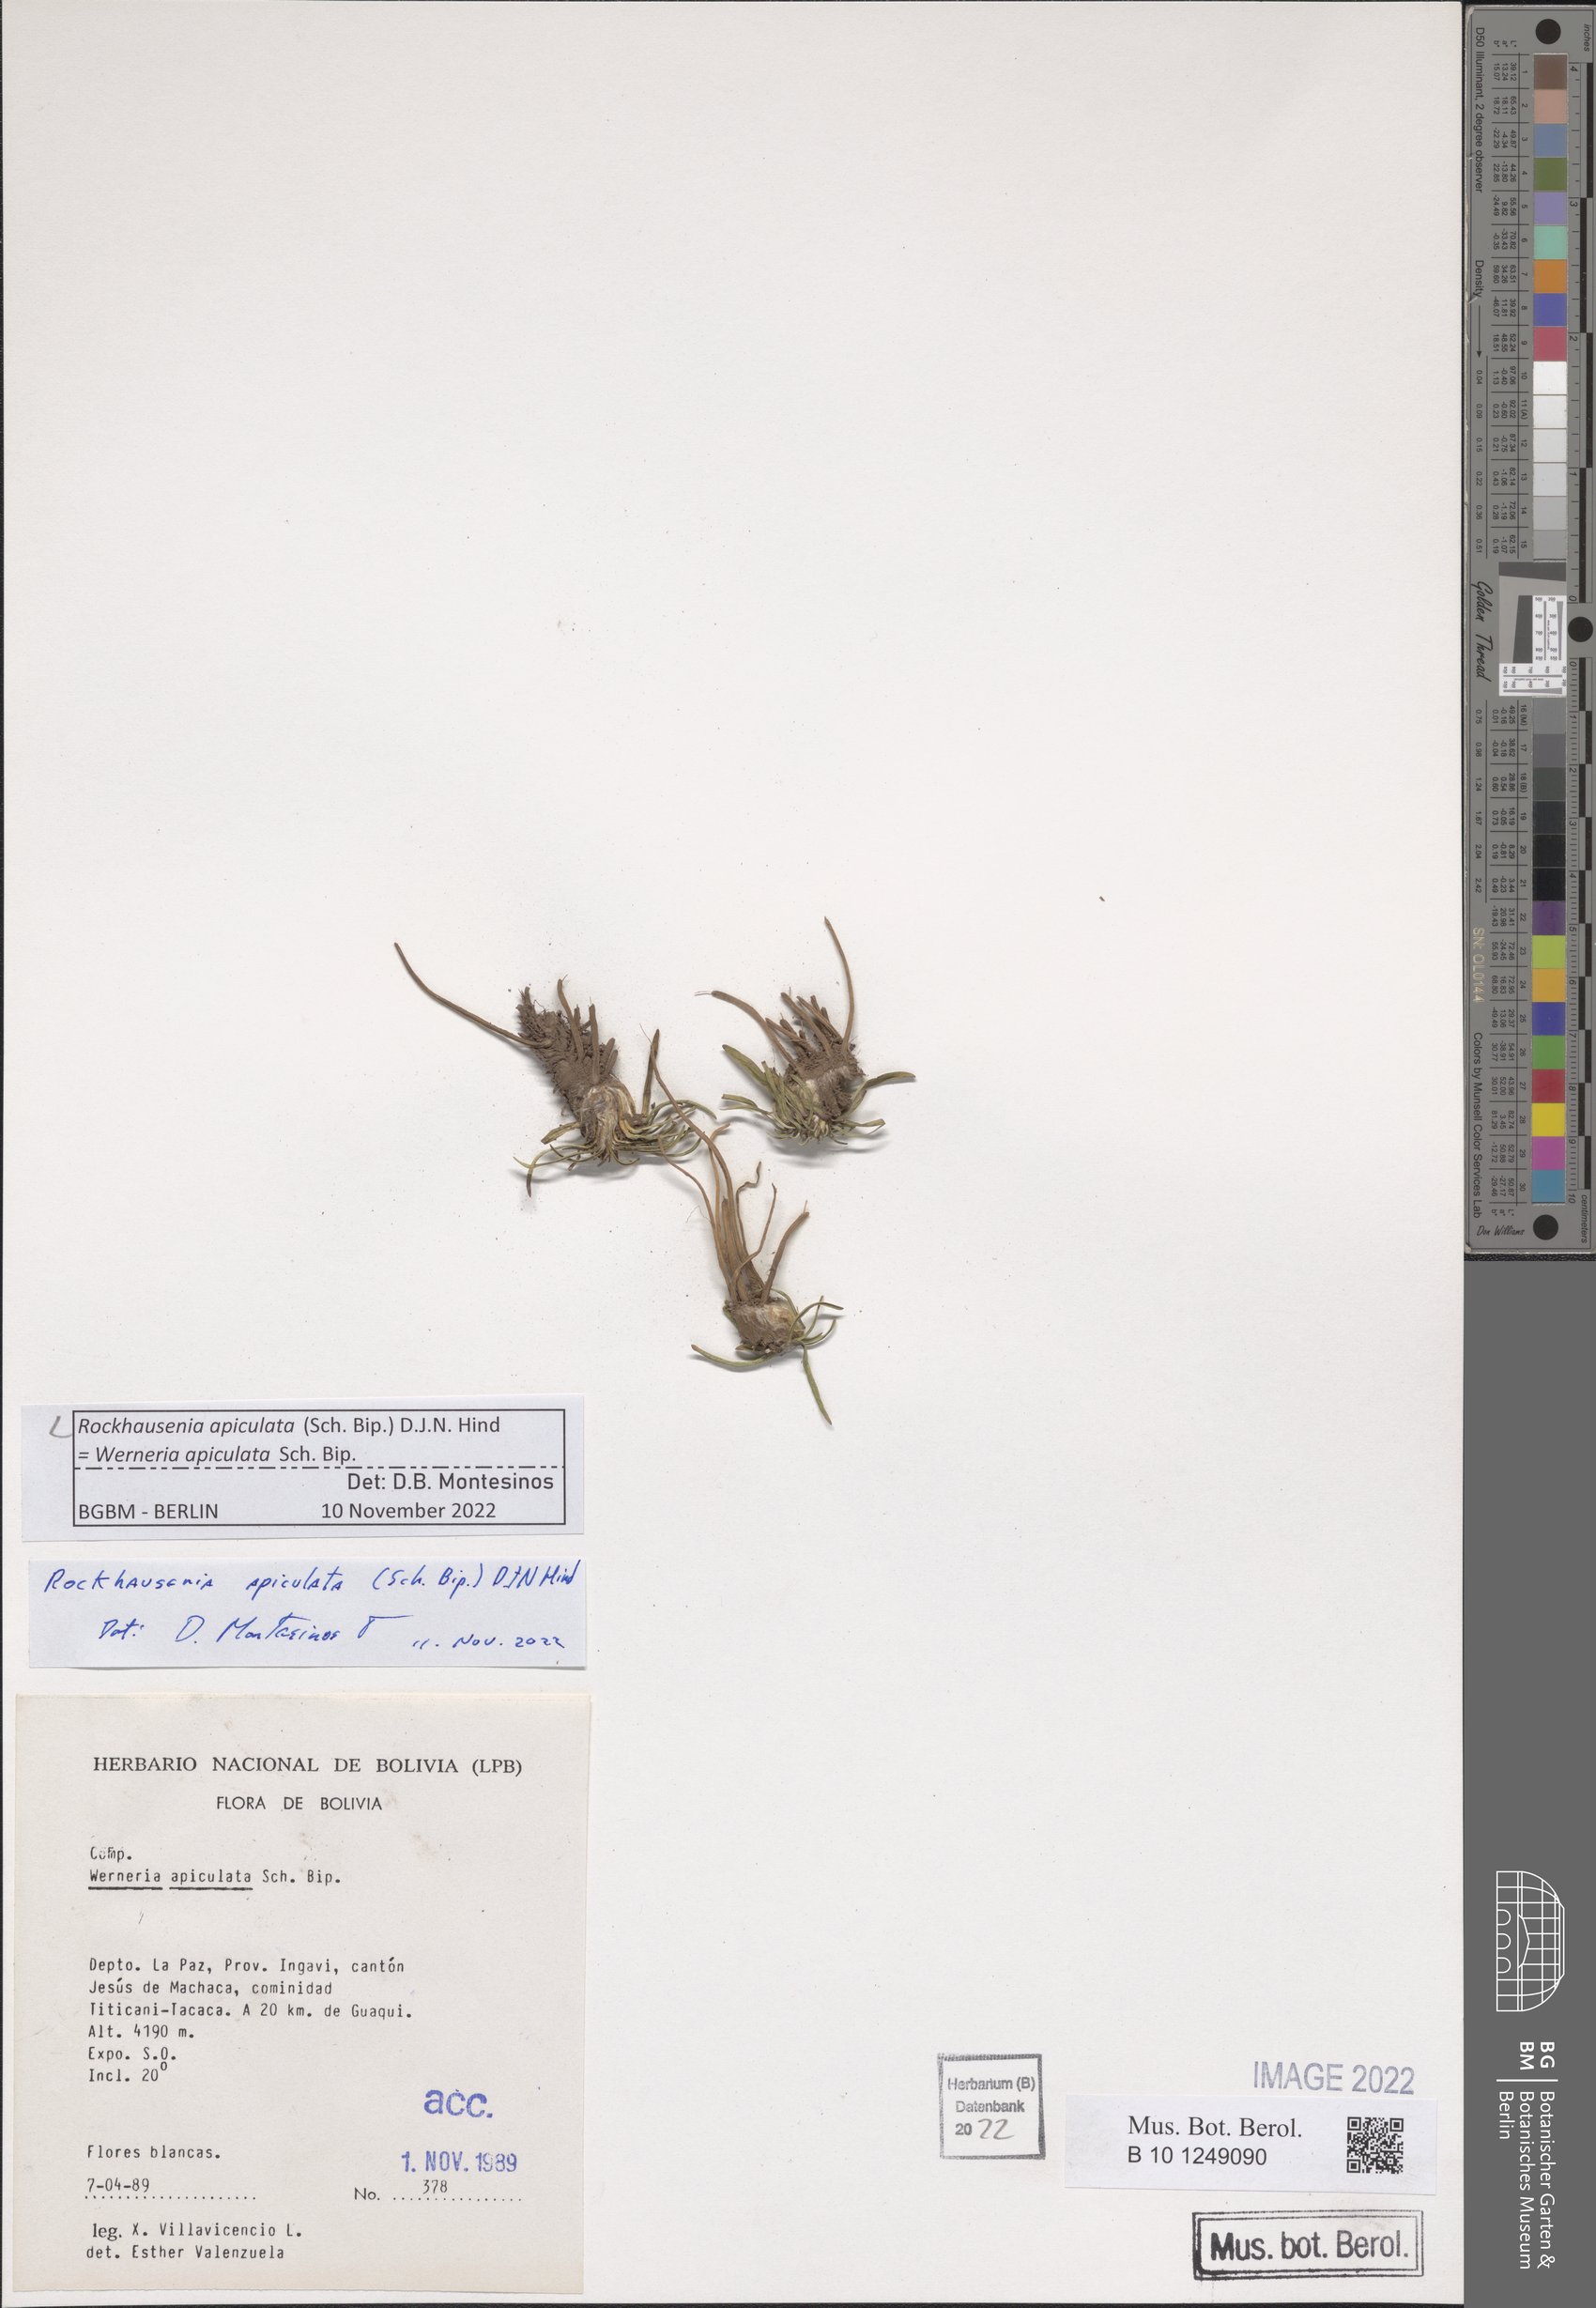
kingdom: Plantae
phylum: Tracheophyta
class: Magnoliopsida
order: Asterales
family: Asteraceae
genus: Rockhausenia
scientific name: Rockhausenia apiculata
